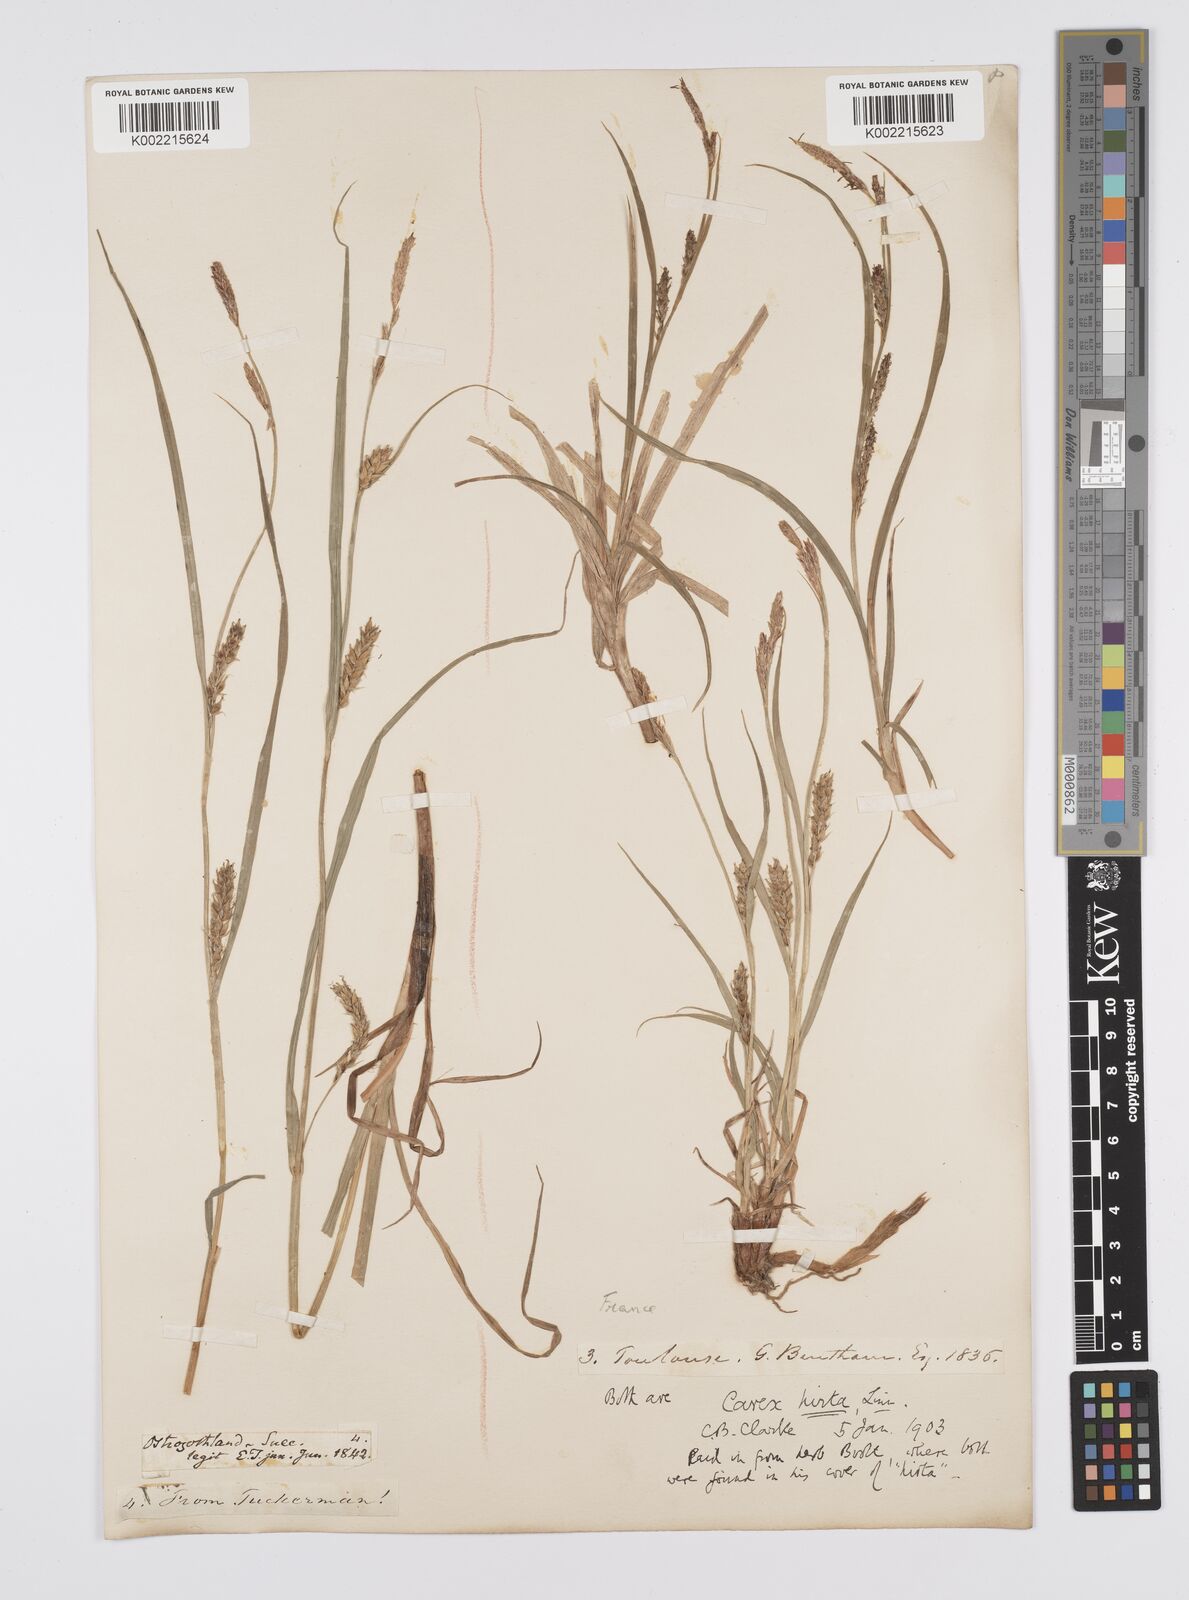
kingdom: Plantae
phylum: Tracheophyta
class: Liliopsida
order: Poales
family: Cyperaceae
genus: Carex
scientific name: Carex hirta
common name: Hairy sedge
